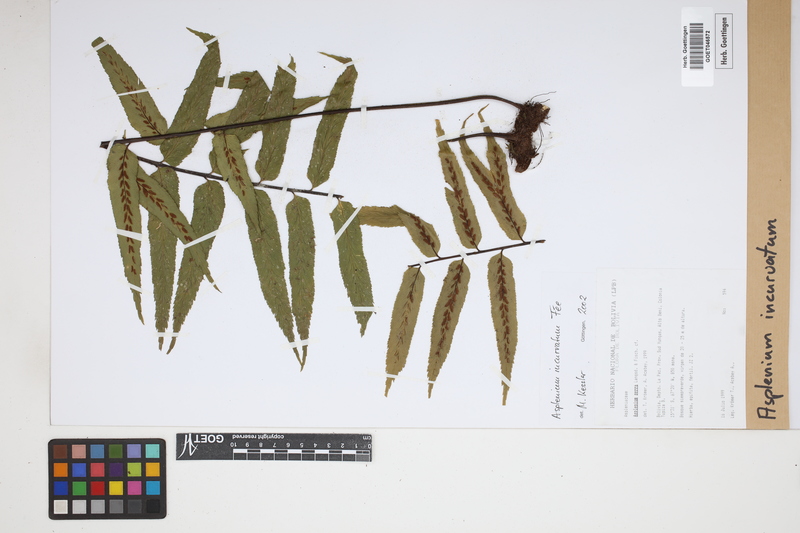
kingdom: Plantae
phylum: Tracheophyta
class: Polypodiopsida
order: Polypodiales
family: Aspleniaceae
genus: Asplenium
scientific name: Asplenium serra
